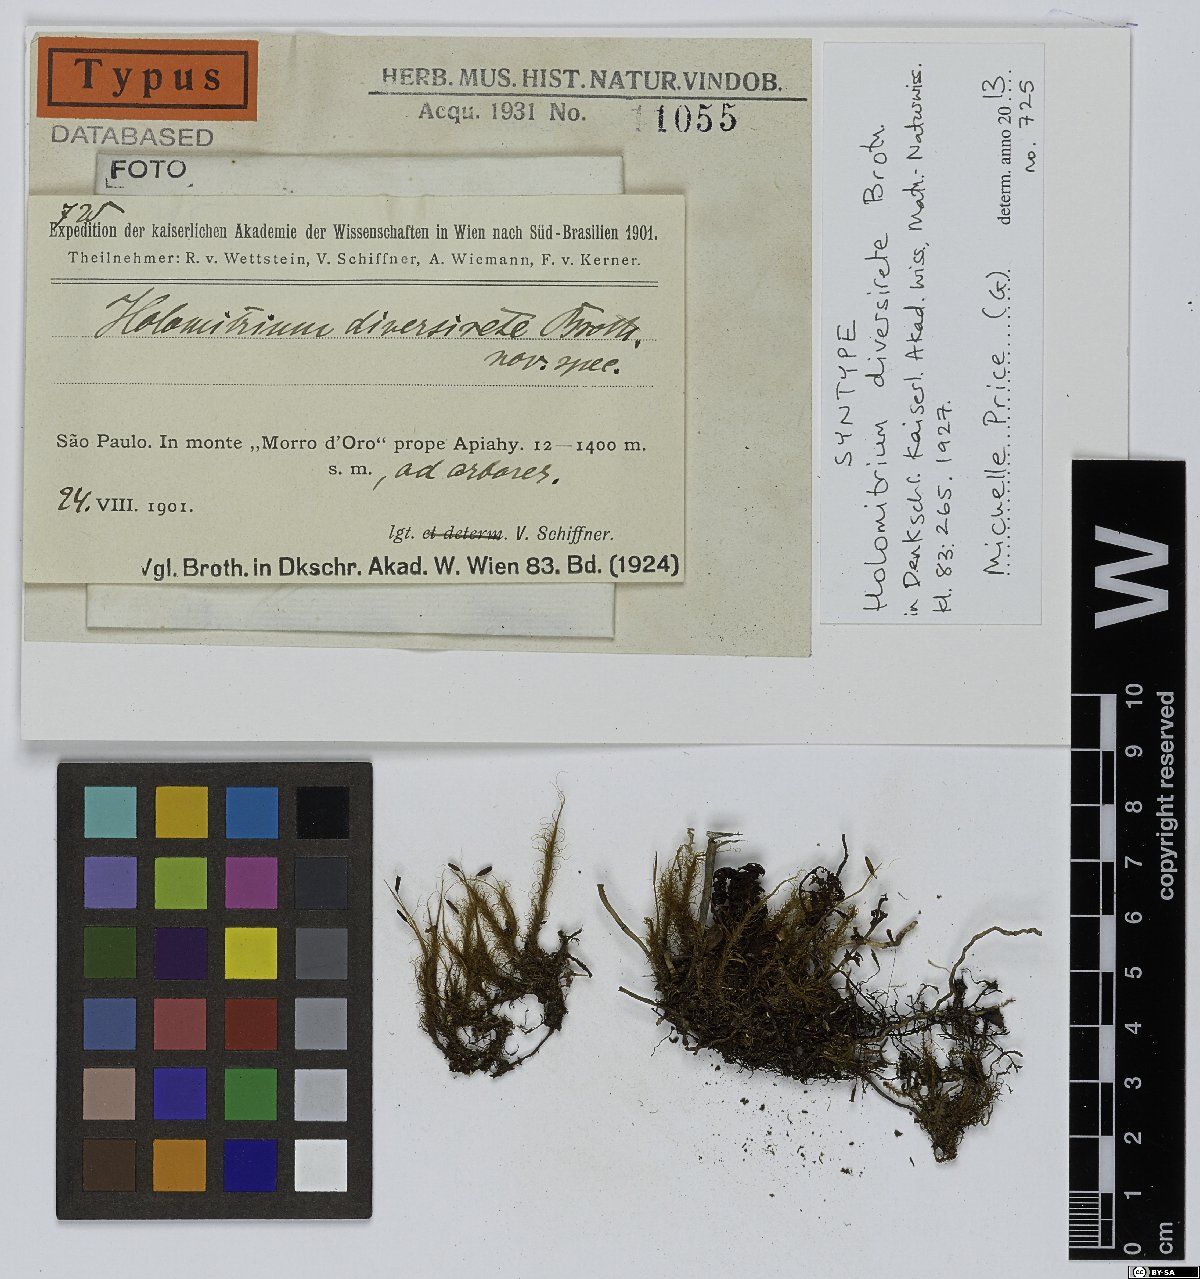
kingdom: Plantae
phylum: Bryophyta
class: Bryopsida
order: Dicranales
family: Dicranaceae
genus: Holomitrium
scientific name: Holomitrium diversirete
